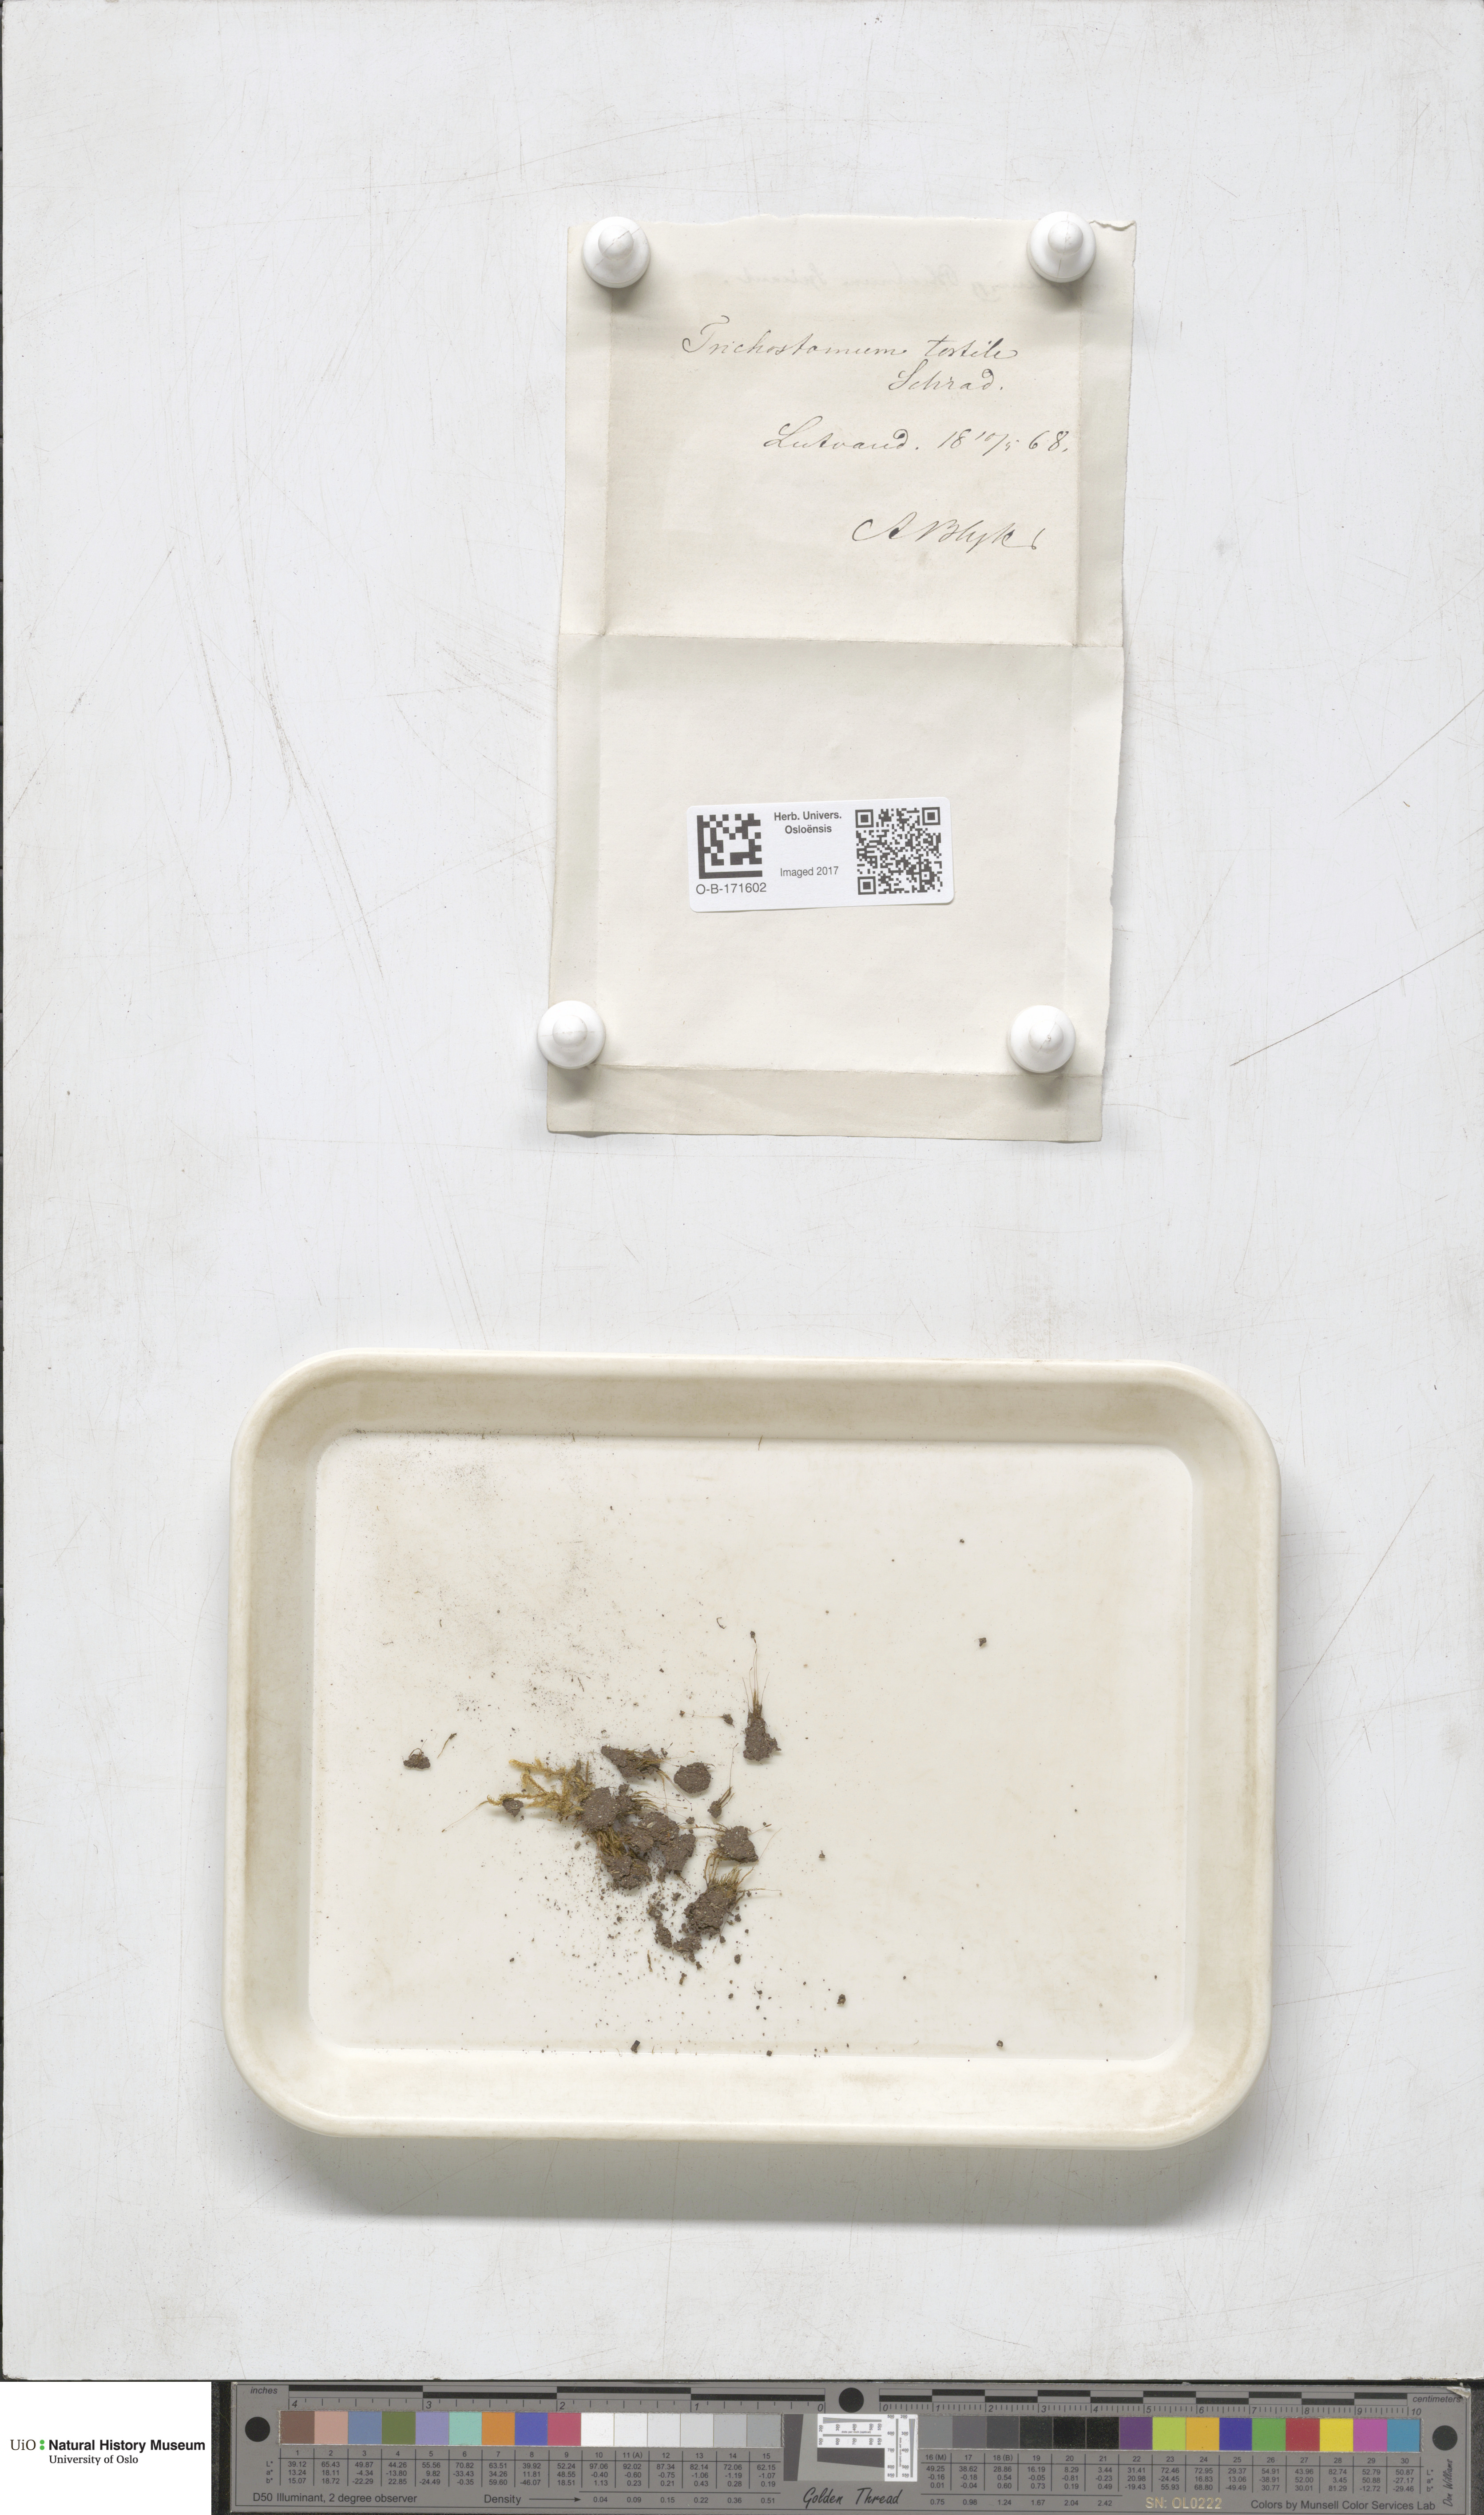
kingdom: Plantae
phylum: Bryophyta
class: Bryopsida
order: Dicranales
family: Ditrichaceae
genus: Ditrichum
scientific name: Ditrichum pusillum
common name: Brown cow-hair moss
